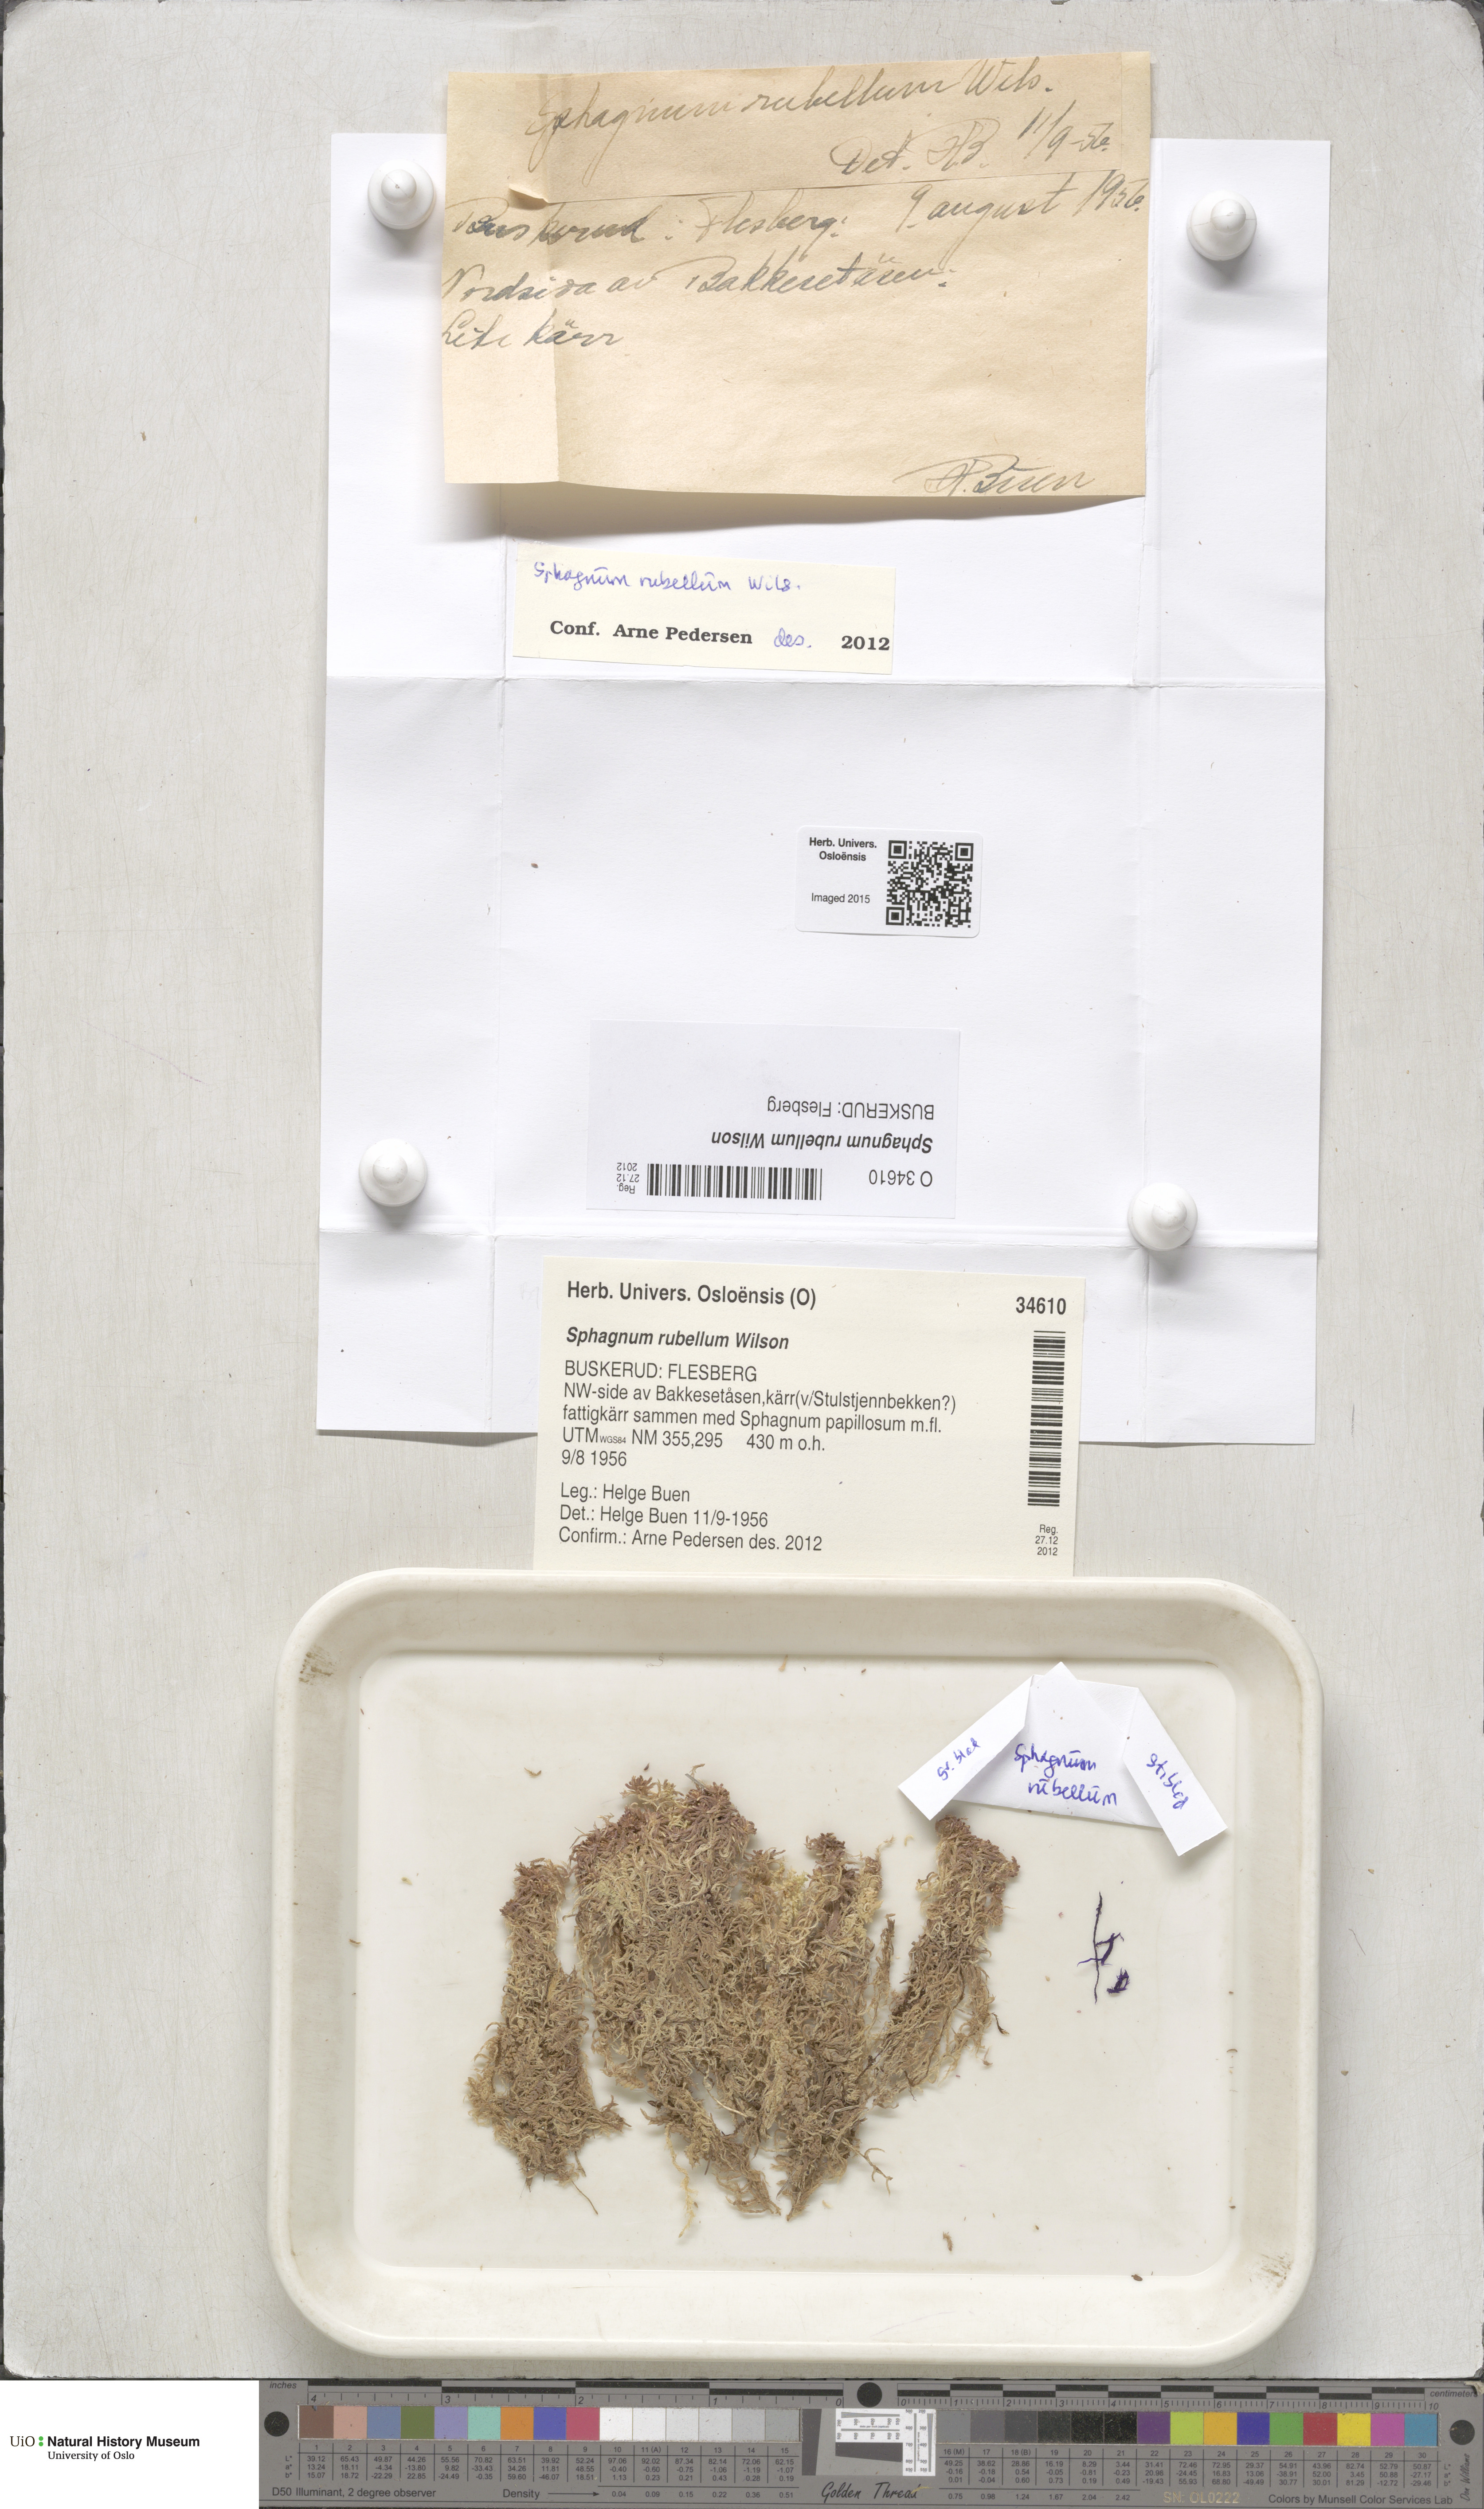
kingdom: Plantae
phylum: Bryophyta
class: Sphagnopsida
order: Sphagnales
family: Sphagnaceae
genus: Sphagnum
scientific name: Sphagnum rubellum
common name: Red peat moss
